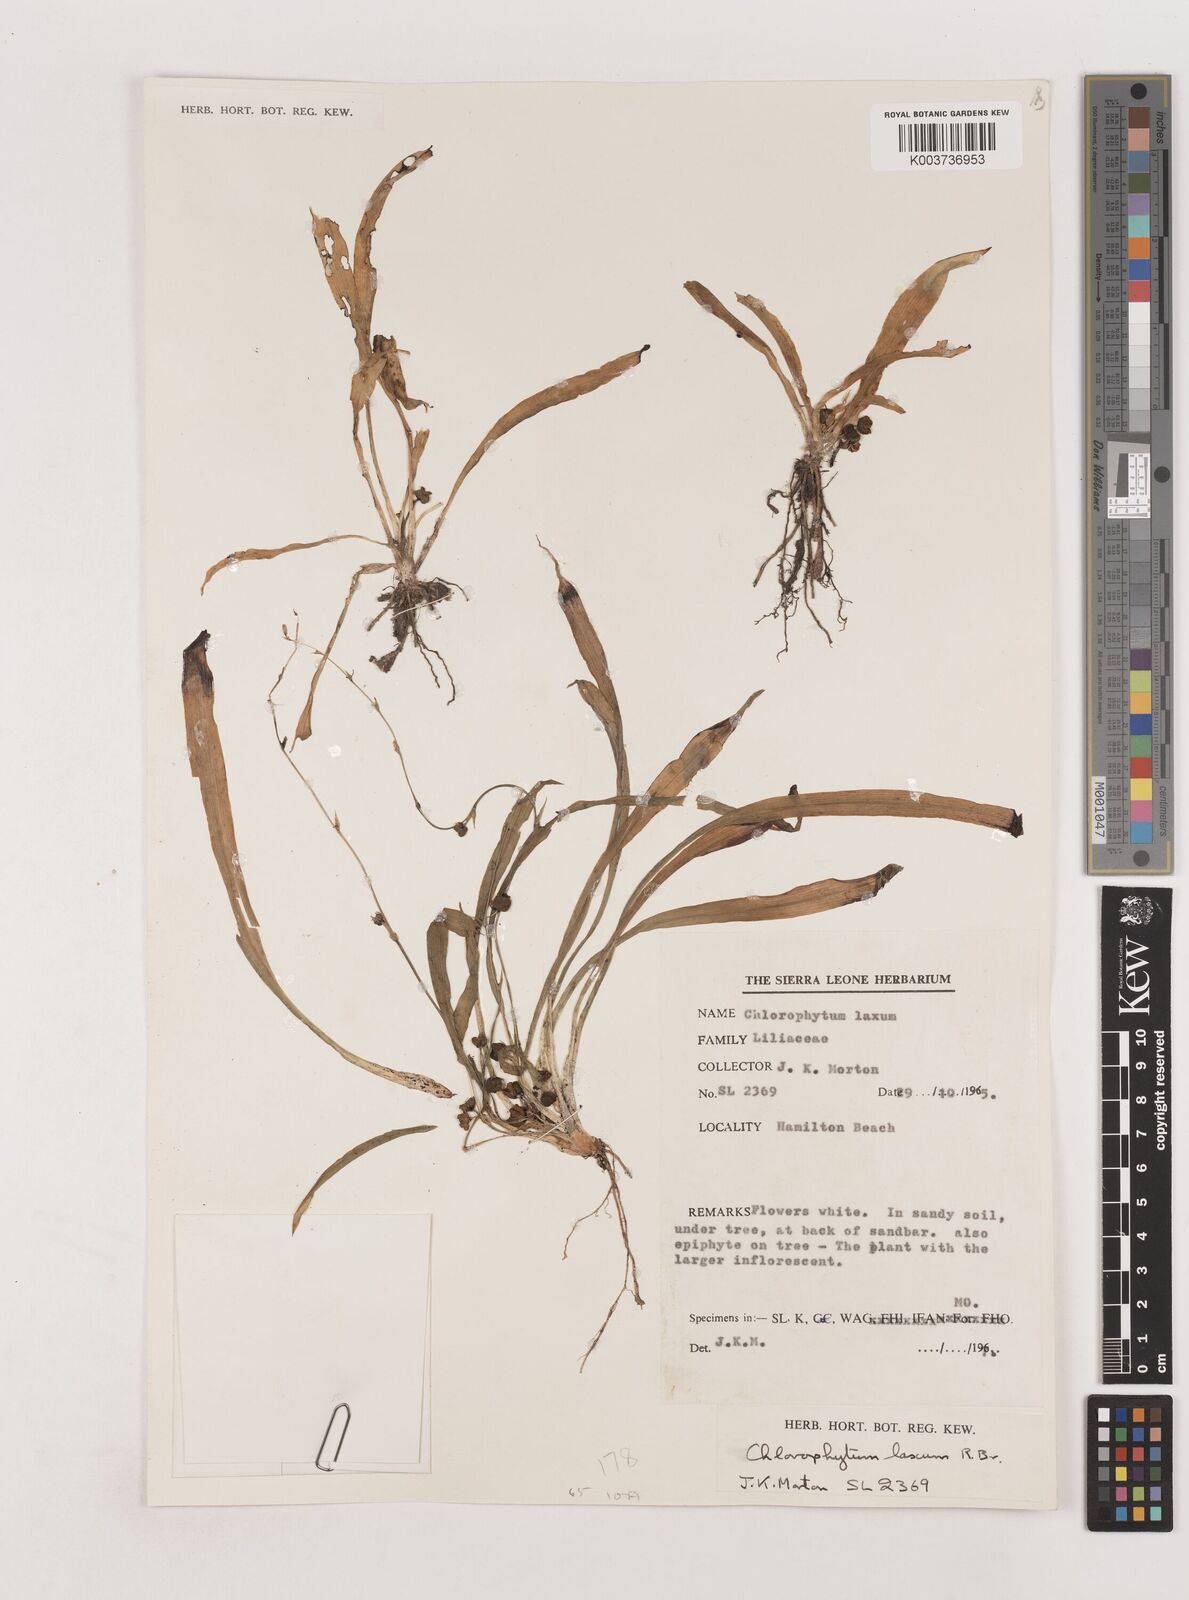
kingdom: Plantae
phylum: Tracheophyta
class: Liliopsida
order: Asparagales
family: Asparagaceae
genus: Chlorophytum
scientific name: Chlorophytum laxum
